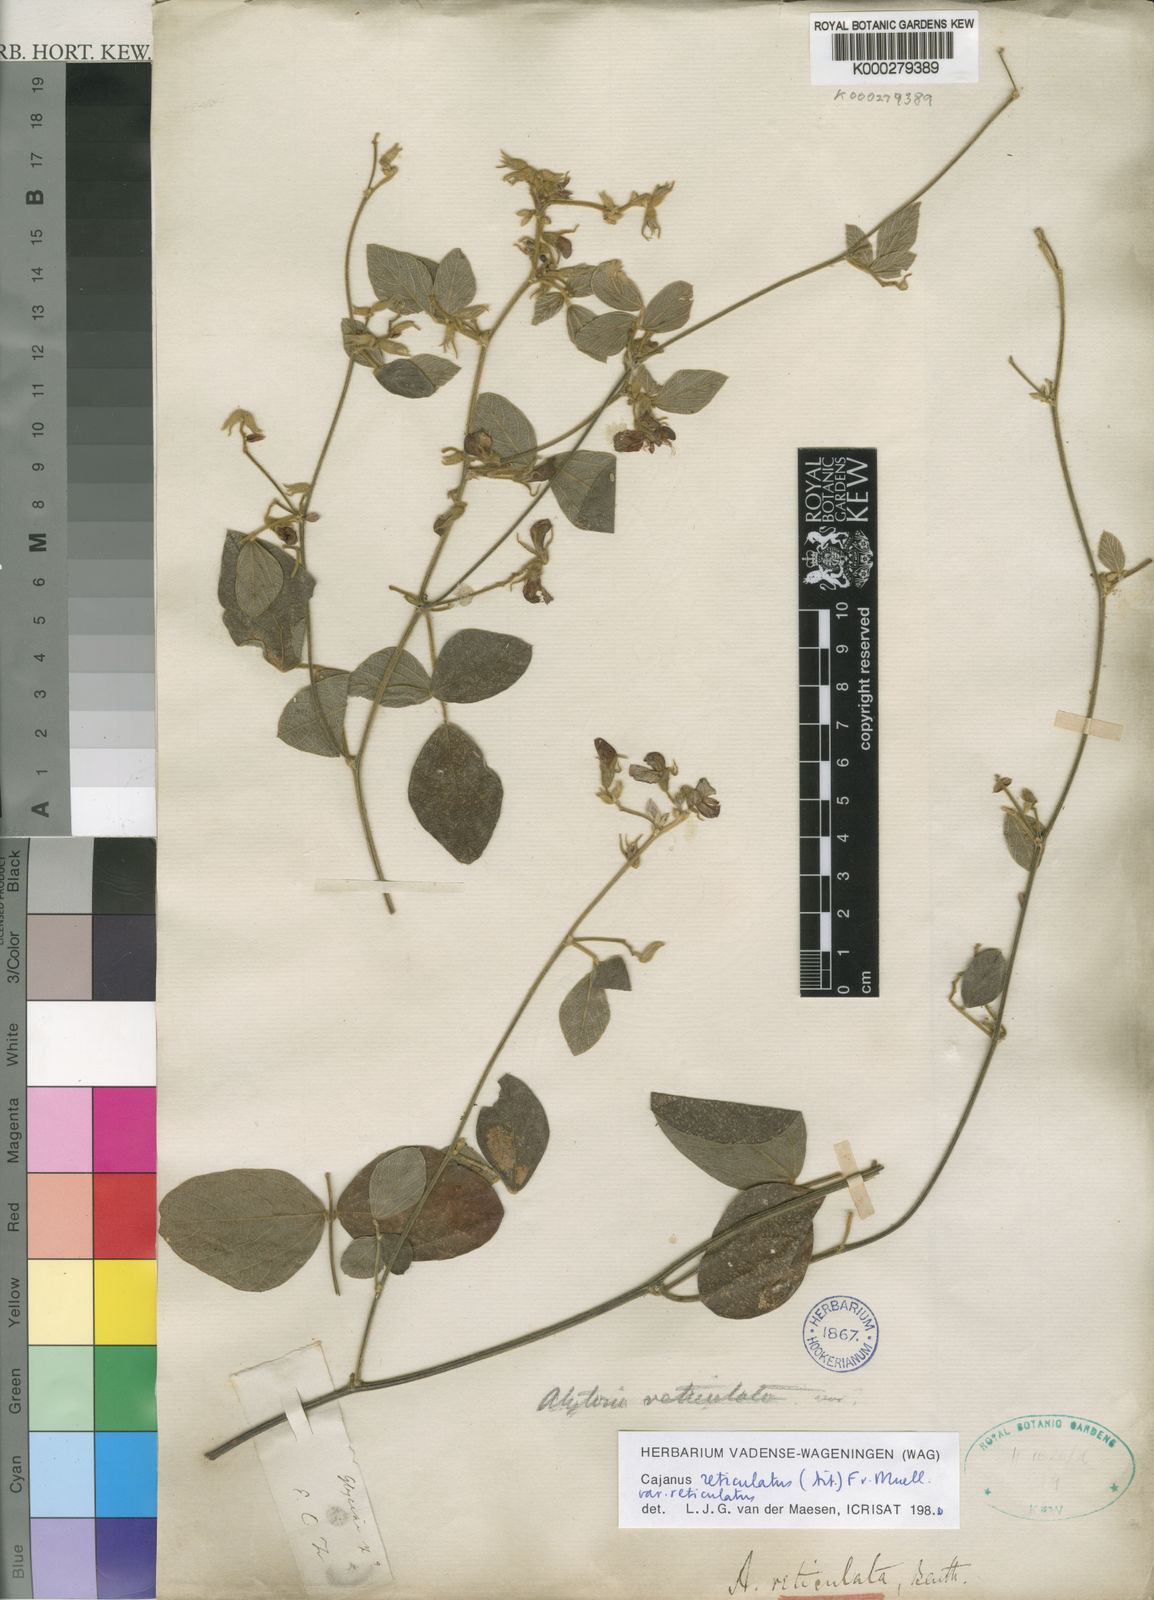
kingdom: Plantae
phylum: Tracheophyta
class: Magnoliopsida
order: Fabales
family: Fabaceae
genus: Cajanus
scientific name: Cajanus reticulatus
